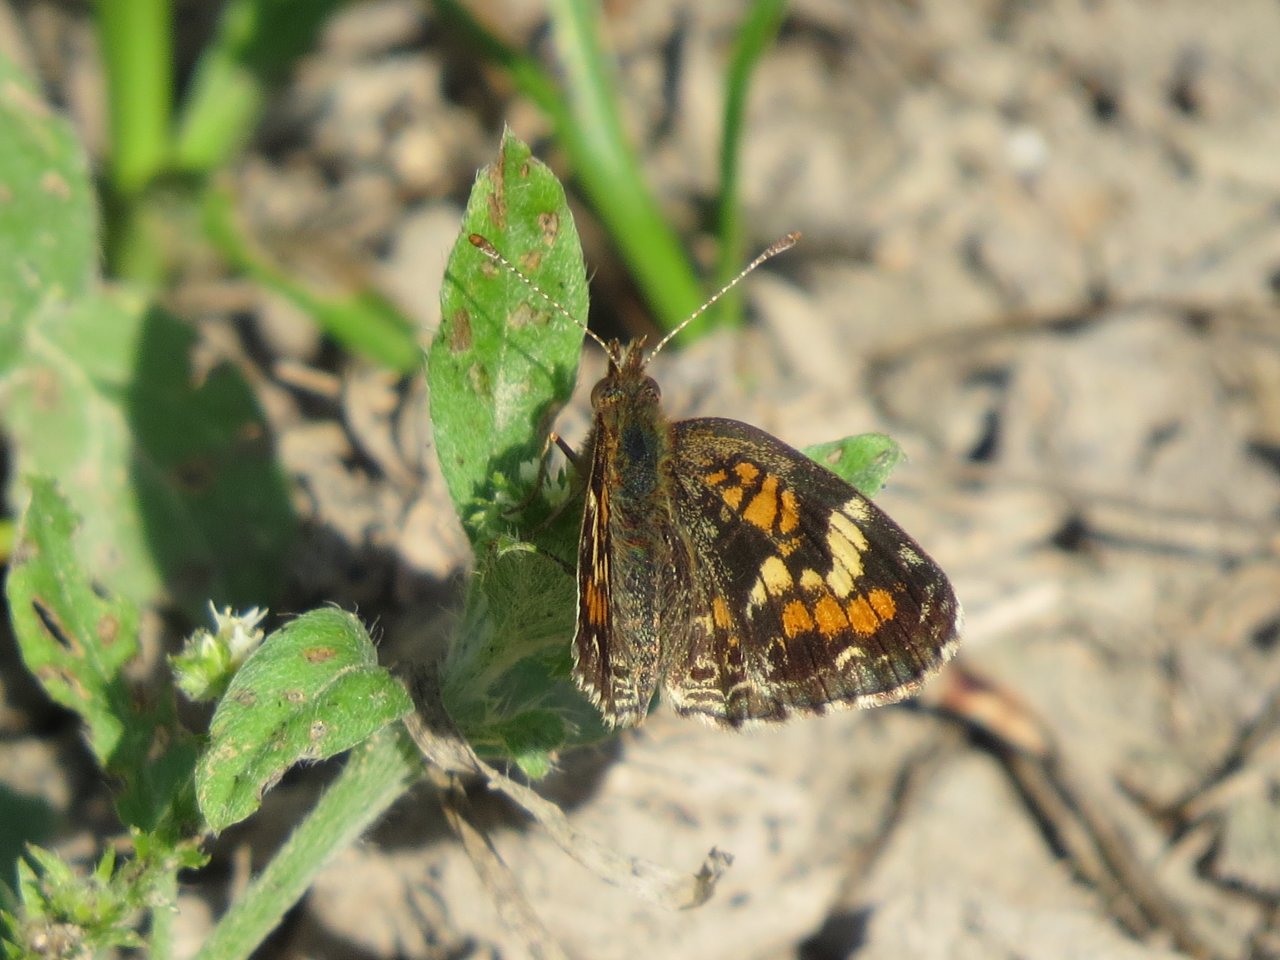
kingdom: Animalia
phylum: Arthropoda
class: Insecta
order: Lepidoptera
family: Nymphalidae
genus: Phyciodes
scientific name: Phyciodes phaon
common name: Phaon Crescent
